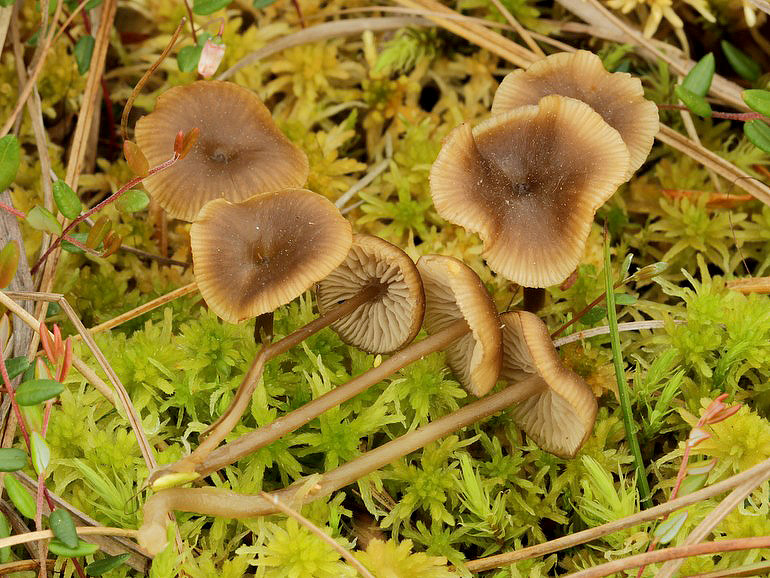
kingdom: Fungi
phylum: Basidiomycota
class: Agaricomycetes
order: Agaricales
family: Lyophyllaceae
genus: Sphagnurus
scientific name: Sphagnurus paluster
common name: tørvemos-gråblad
